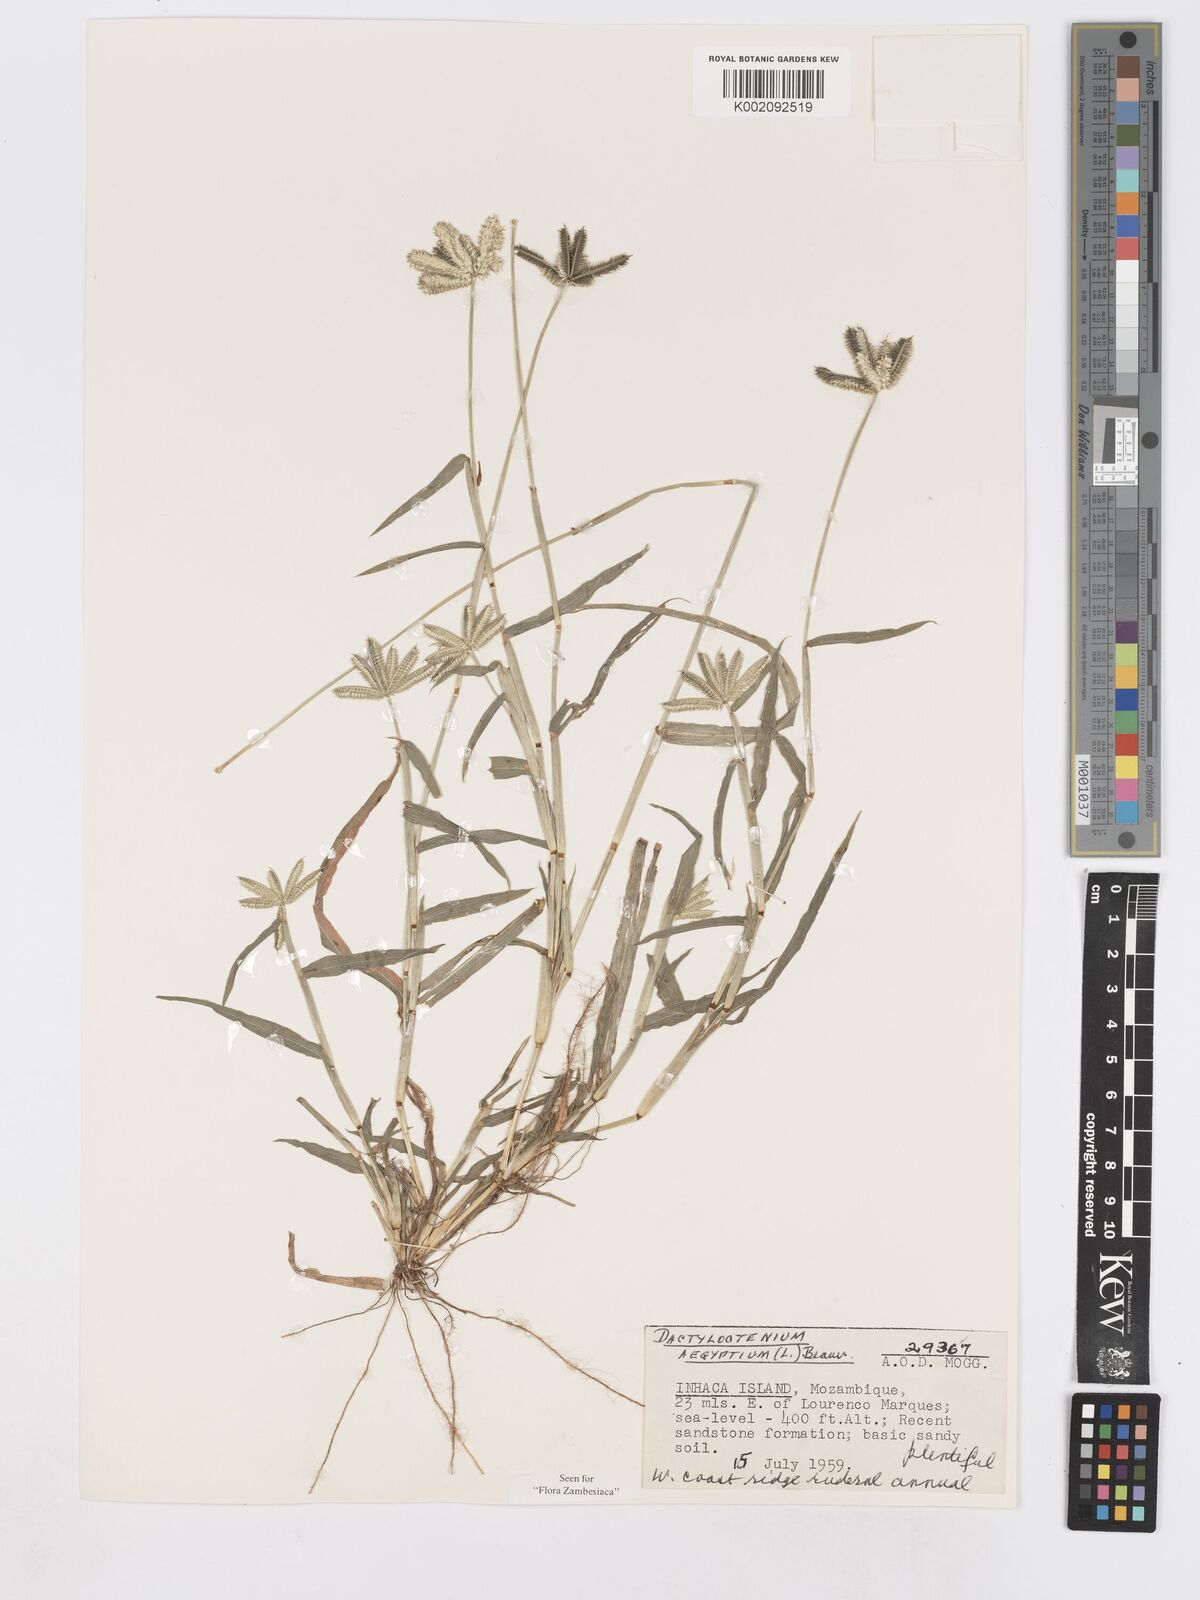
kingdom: Plantae
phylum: Tracheophyta
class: Liliopsida
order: Poales
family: Poaceae
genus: Dactyloctenium
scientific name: Dactyloctenium aegyptium
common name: Egyptian grass
